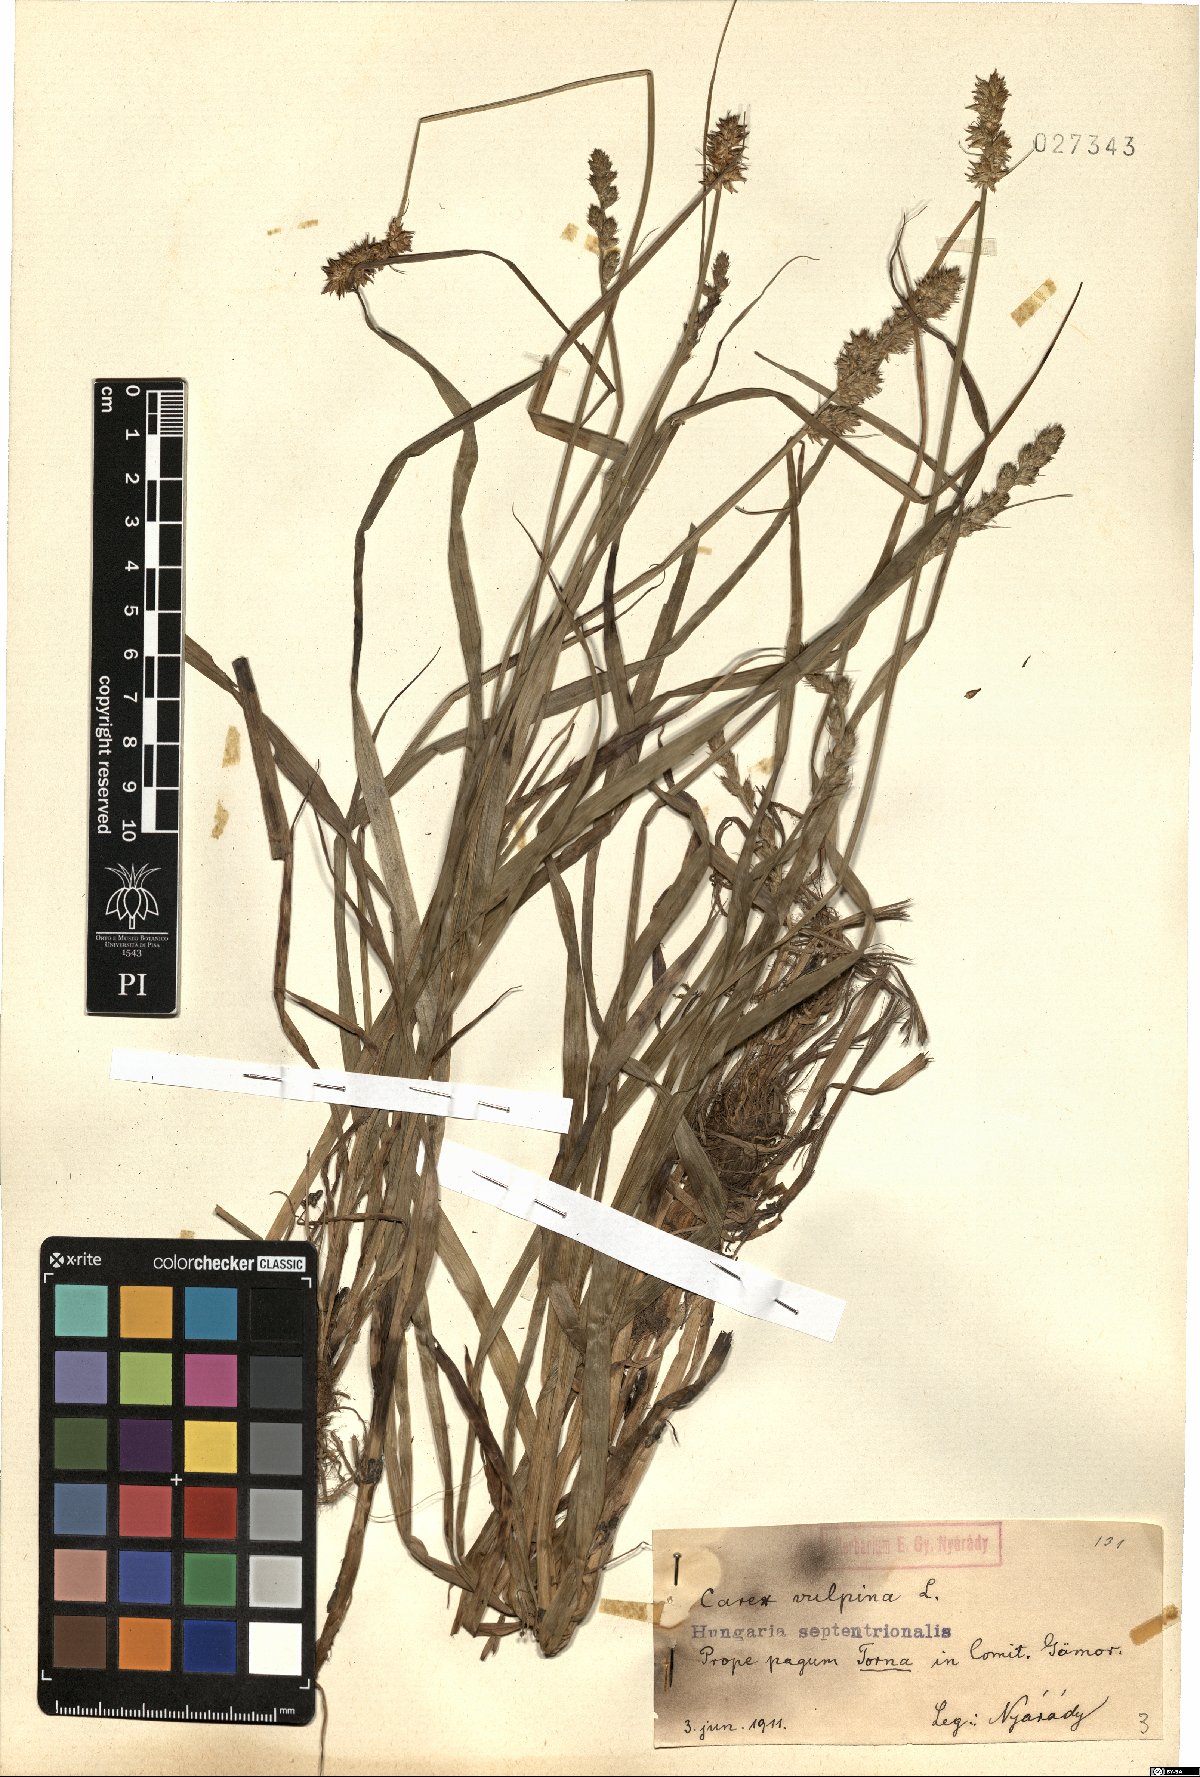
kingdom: Plantae
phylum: Tracheophyta
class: Liliopsida
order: Poales
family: Cyperaceae
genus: Carex
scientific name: Carex vulpina
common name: True fox-sedge
